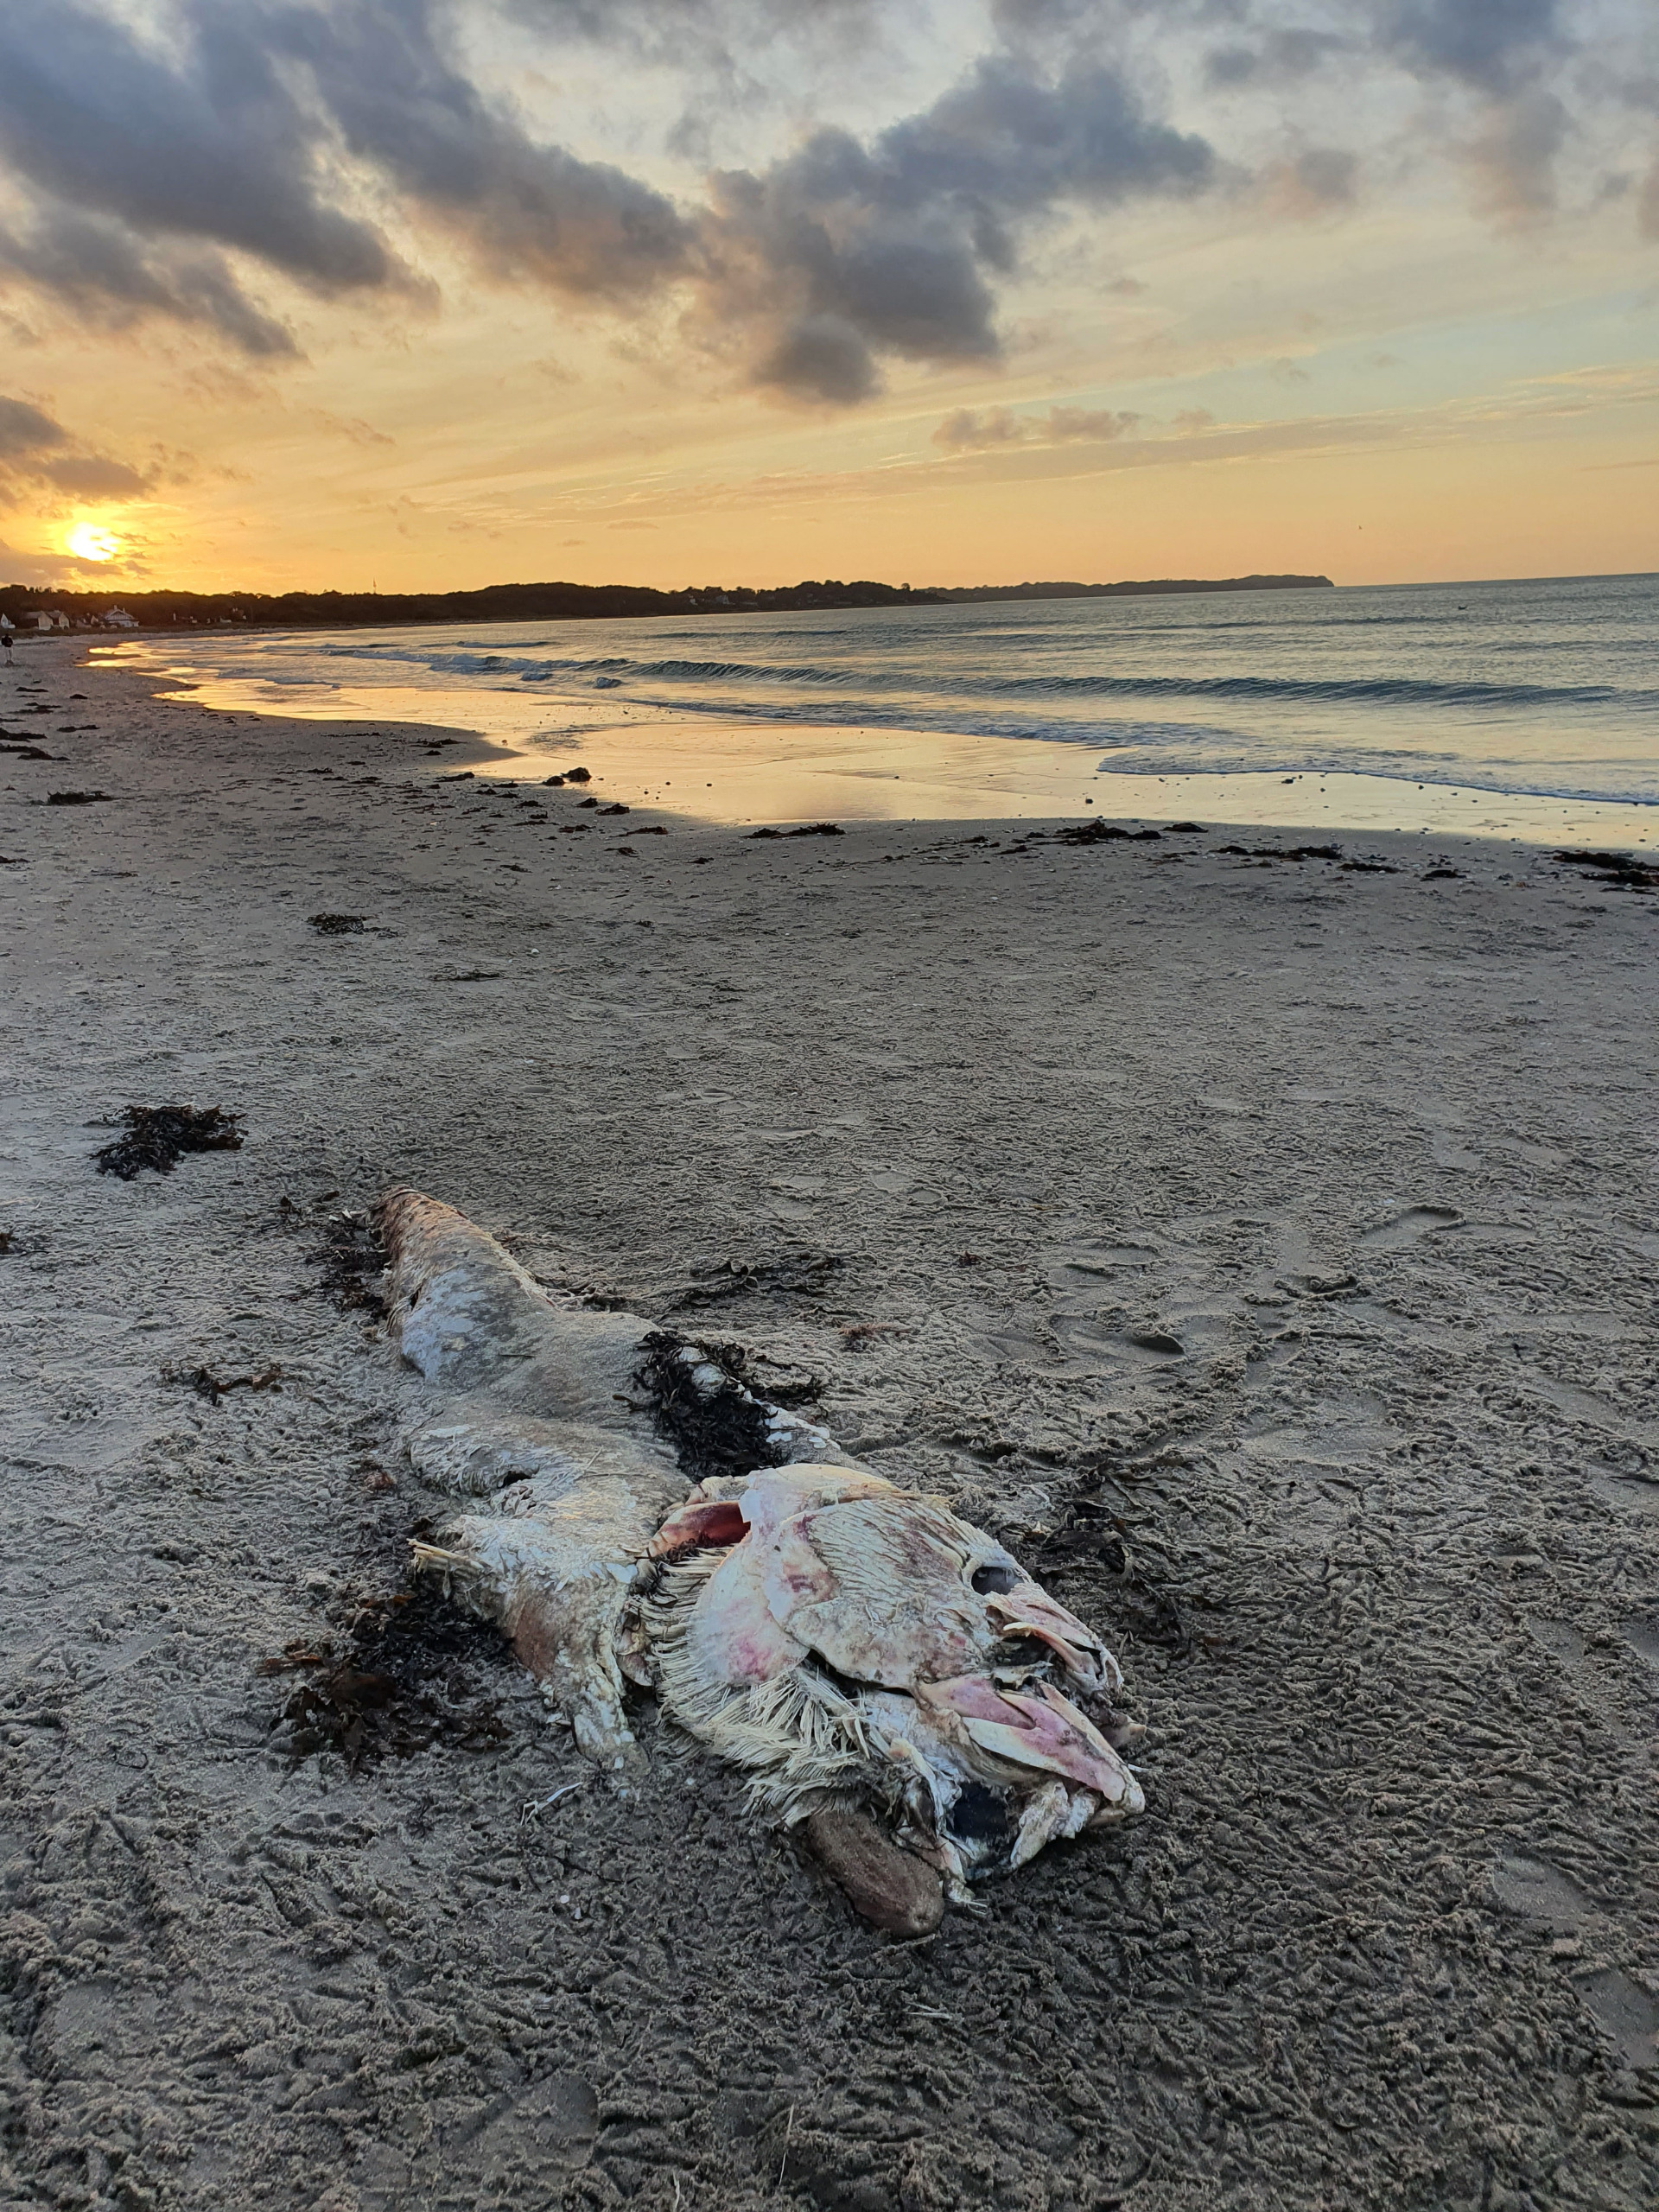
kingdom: Animalia
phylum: Chordata
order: Perciformes
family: Scombridae
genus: Thunnus
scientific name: Thunnus thynnus
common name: Atlantisk tun
